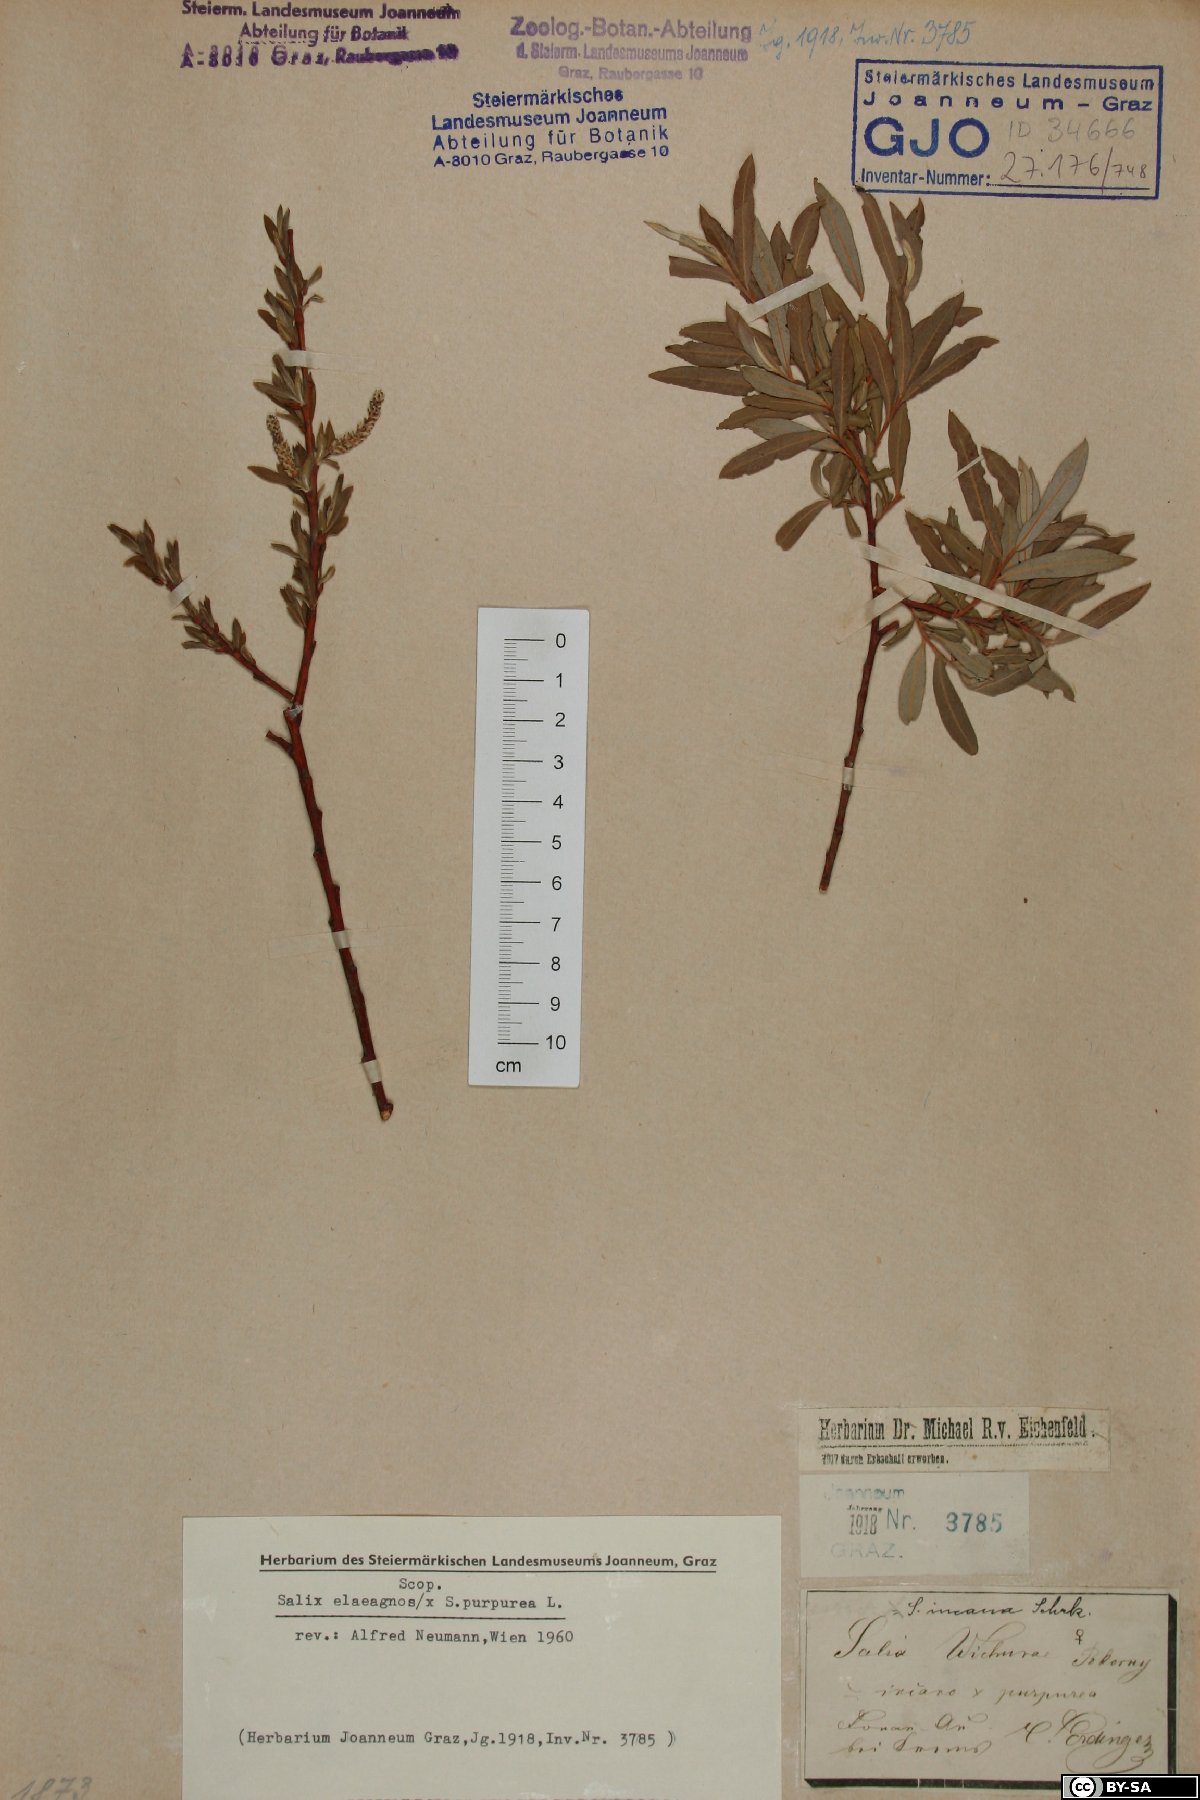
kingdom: Plantae
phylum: Tracheophyta
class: Magnoliopsida
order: Malpighiales
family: Salicaceae
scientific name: Salicaceae
